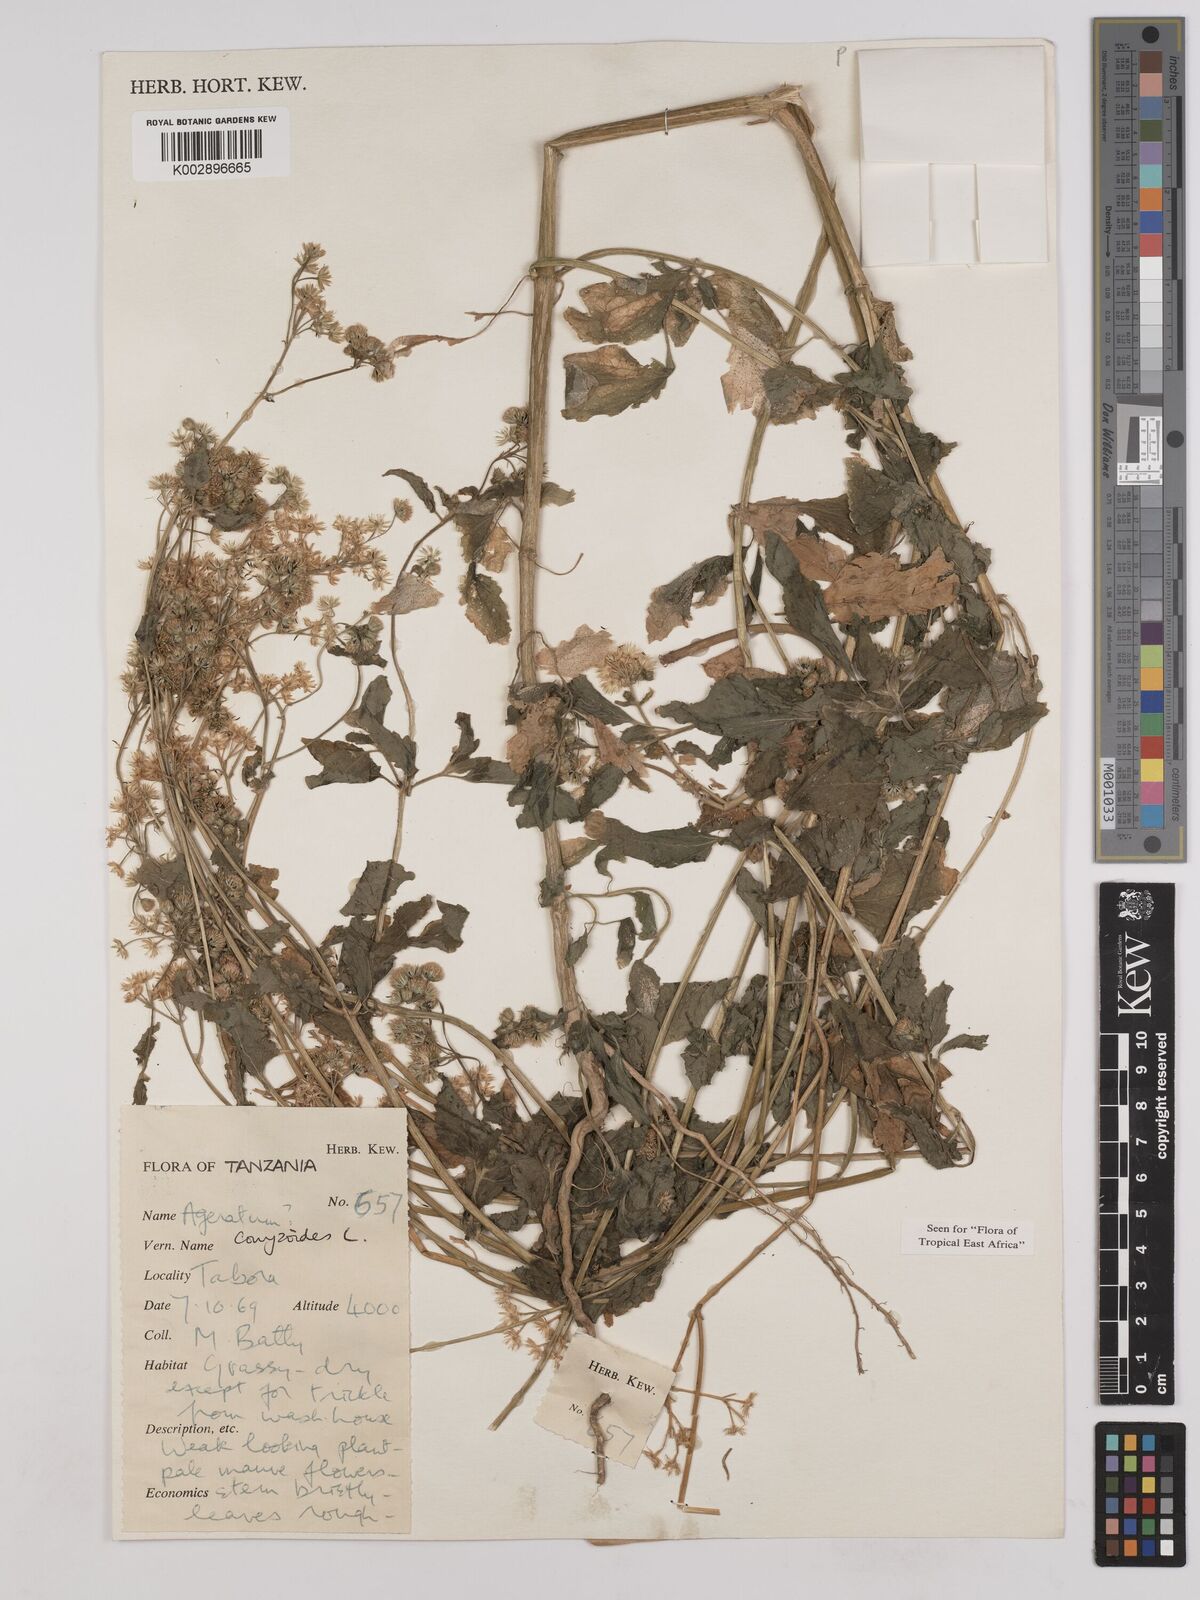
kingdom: Plantae
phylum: Tracheophyta
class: Magnoliopsida
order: Asterales
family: Asteraceae
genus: Ageratum
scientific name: Ageratum conyzoides
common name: Tropical whiteweed
